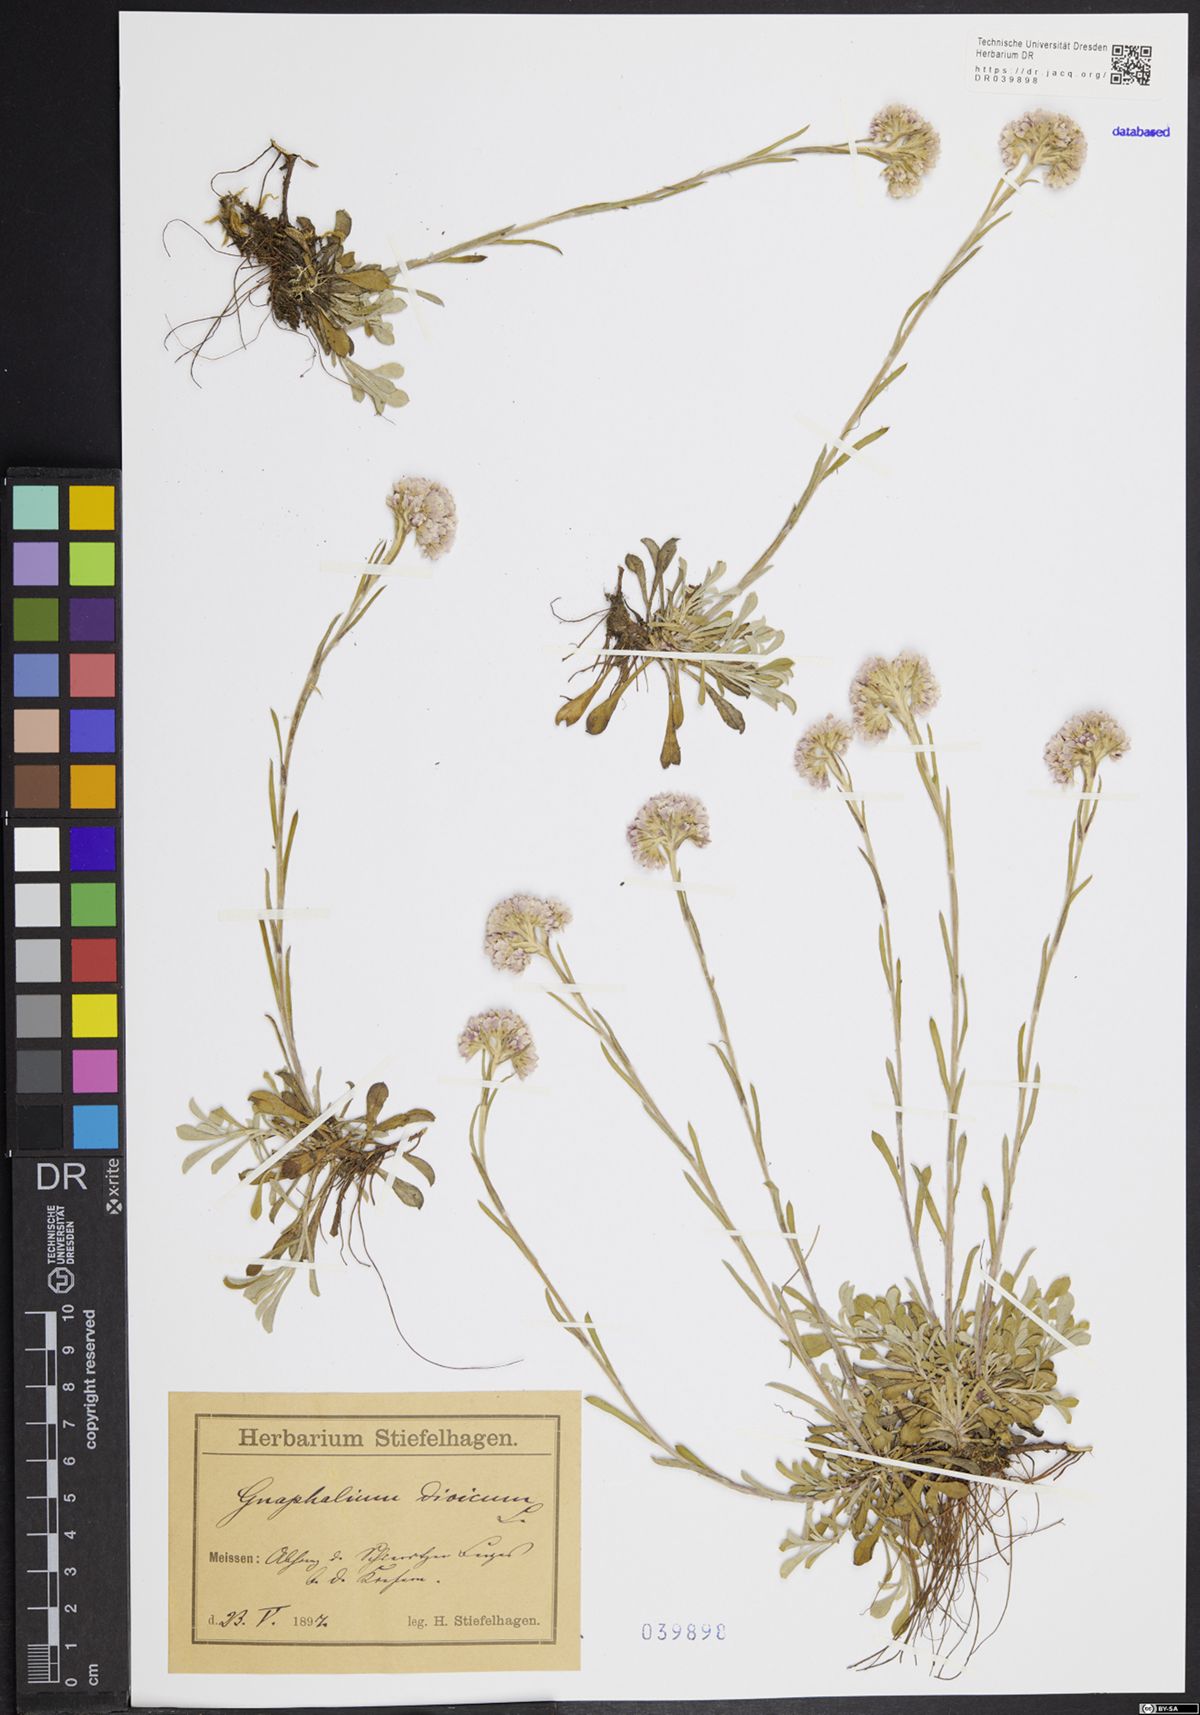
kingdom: Plantae
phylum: Tracheophyta
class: Magnoliopsida
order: Asterales
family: Asteraceae
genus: Antennaria
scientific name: Antennaria dioica
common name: Mountain everlasting
